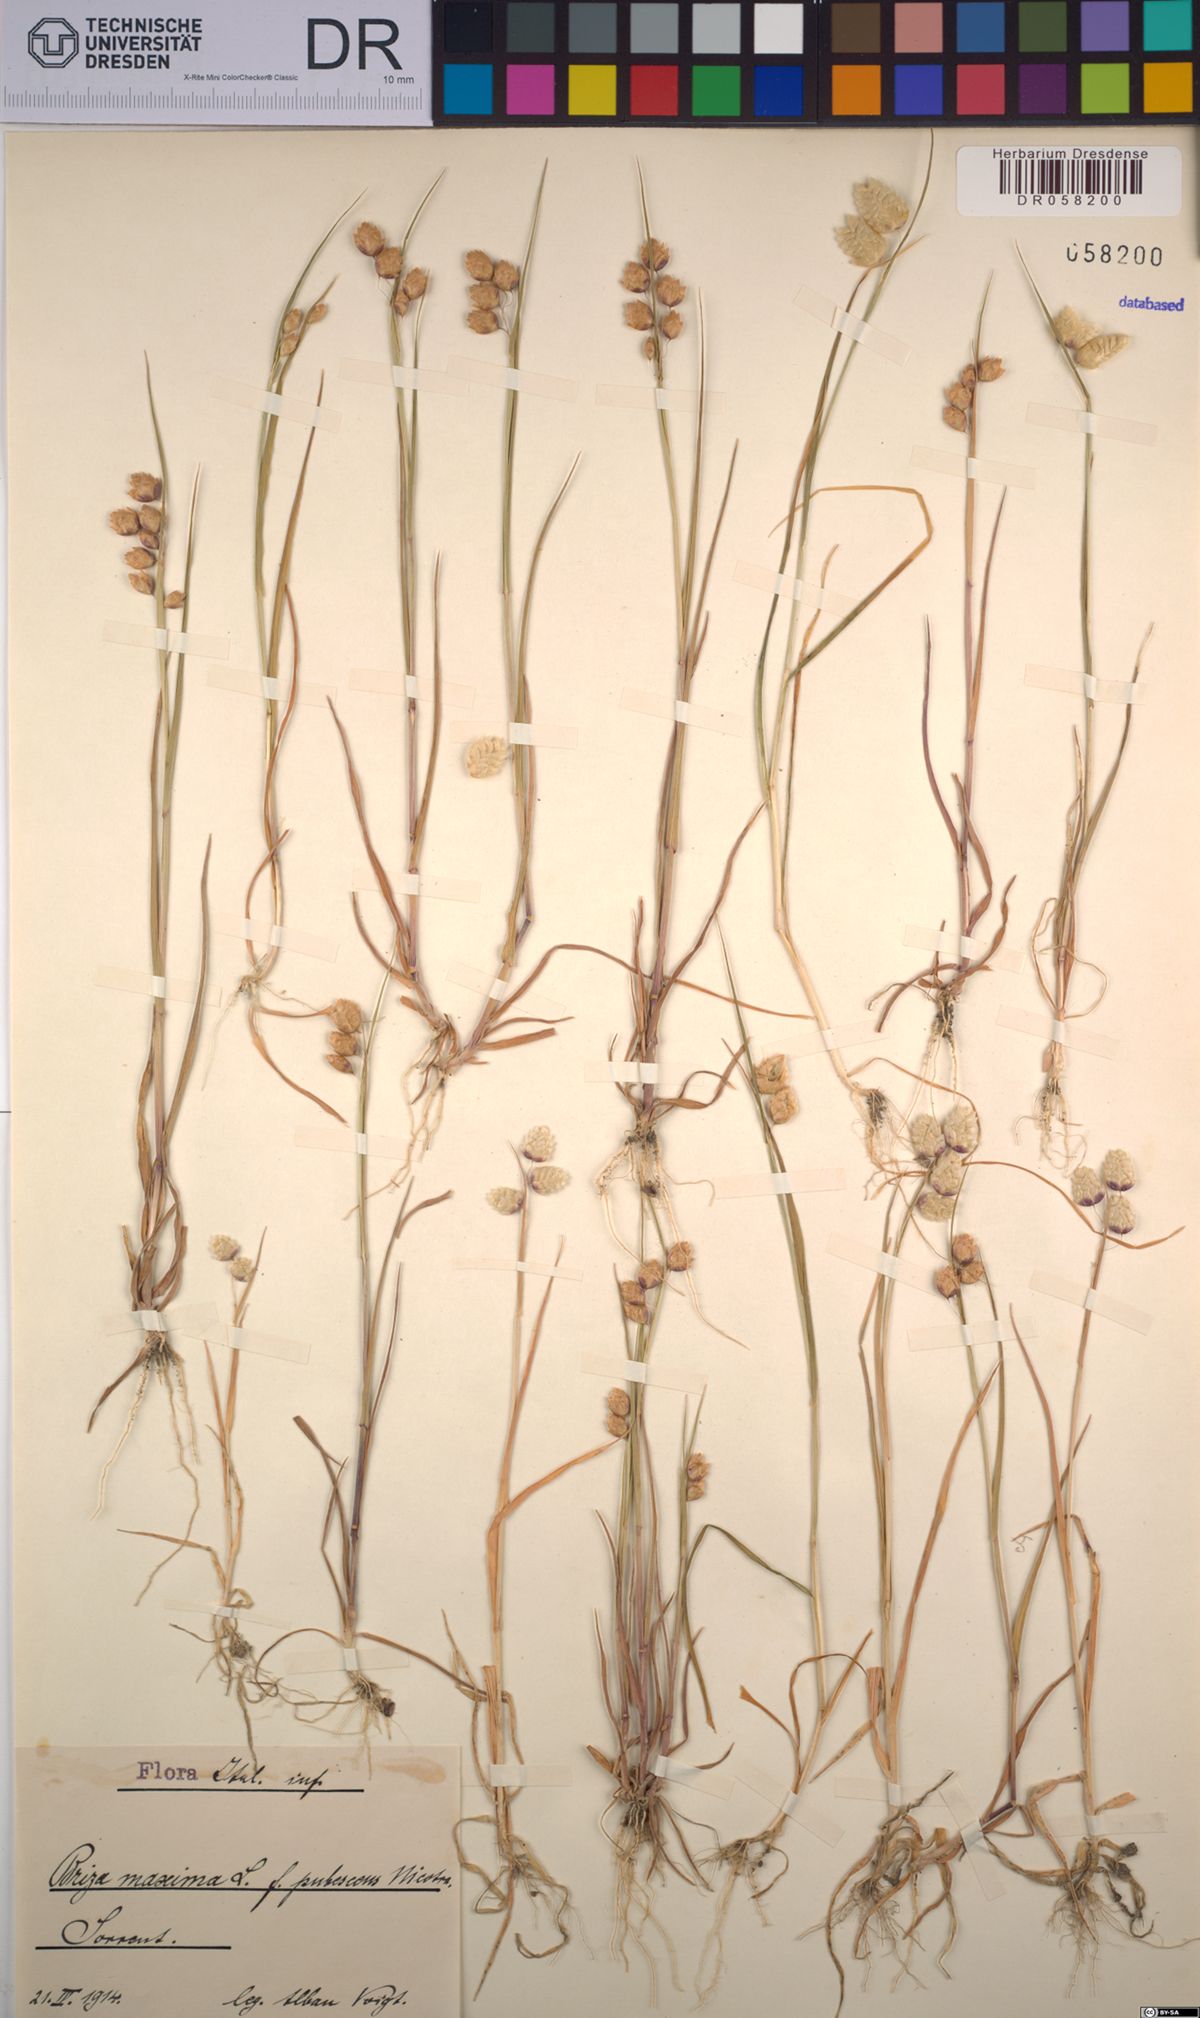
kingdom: Plantae
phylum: Tracheophyta
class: Liliopsida
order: Poales
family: Poaceae
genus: Briza
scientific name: Briza maxima
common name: Big quakinggrass
